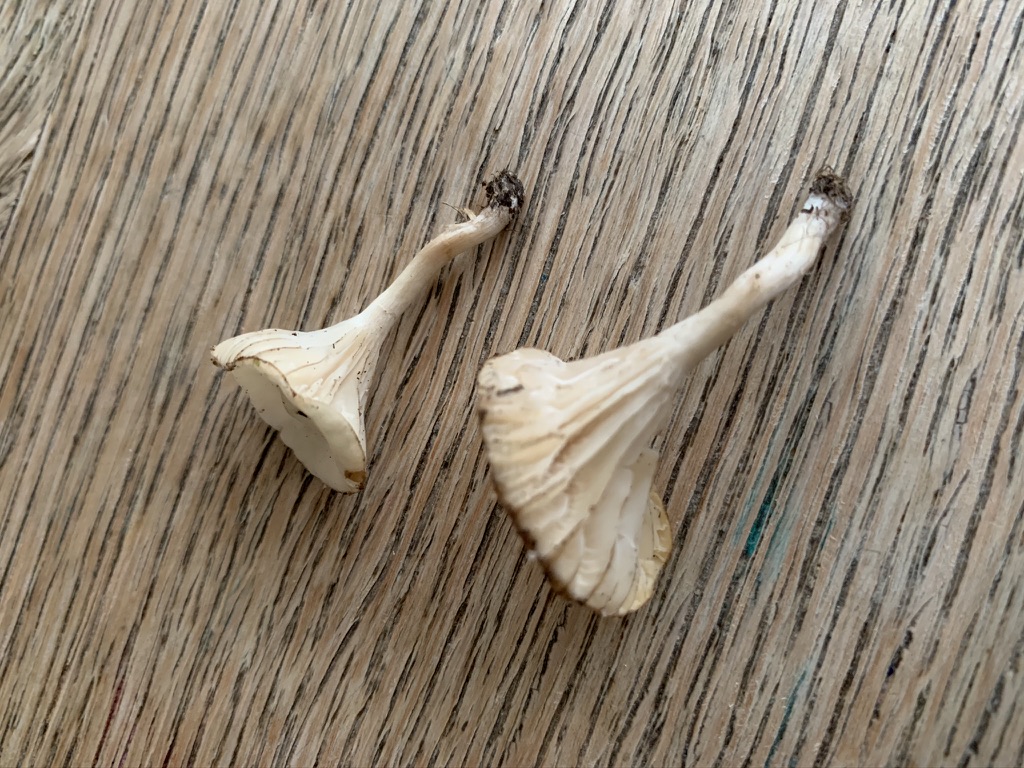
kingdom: Fungi
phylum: Basidiomycota
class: Agaricomycetes
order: Agaricales
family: Hygrophoraceae
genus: Cuphophyllus
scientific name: Cuphophyllus
